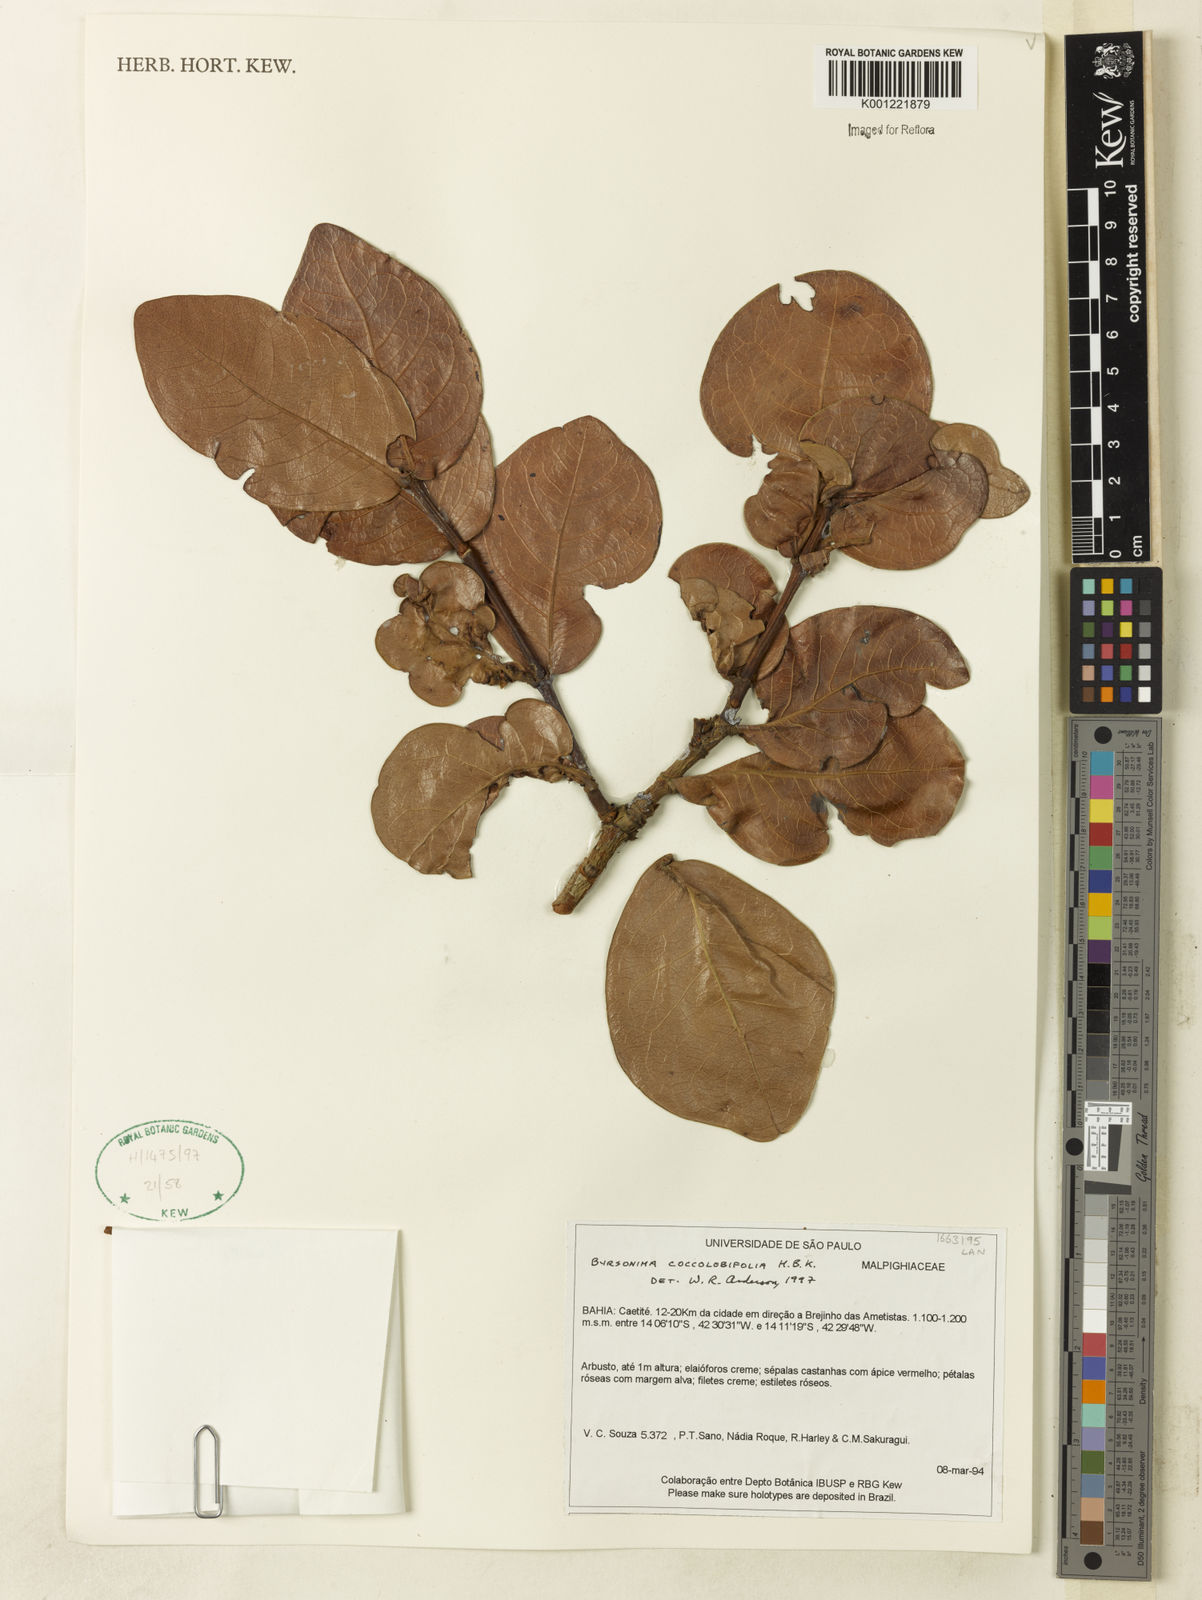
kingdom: Plantae
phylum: Tracheophyta
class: Magnoliopsida
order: Malpighiales
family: Malpighiaceae
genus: Byrsonima
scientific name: Byrsonima coccolobifolia
